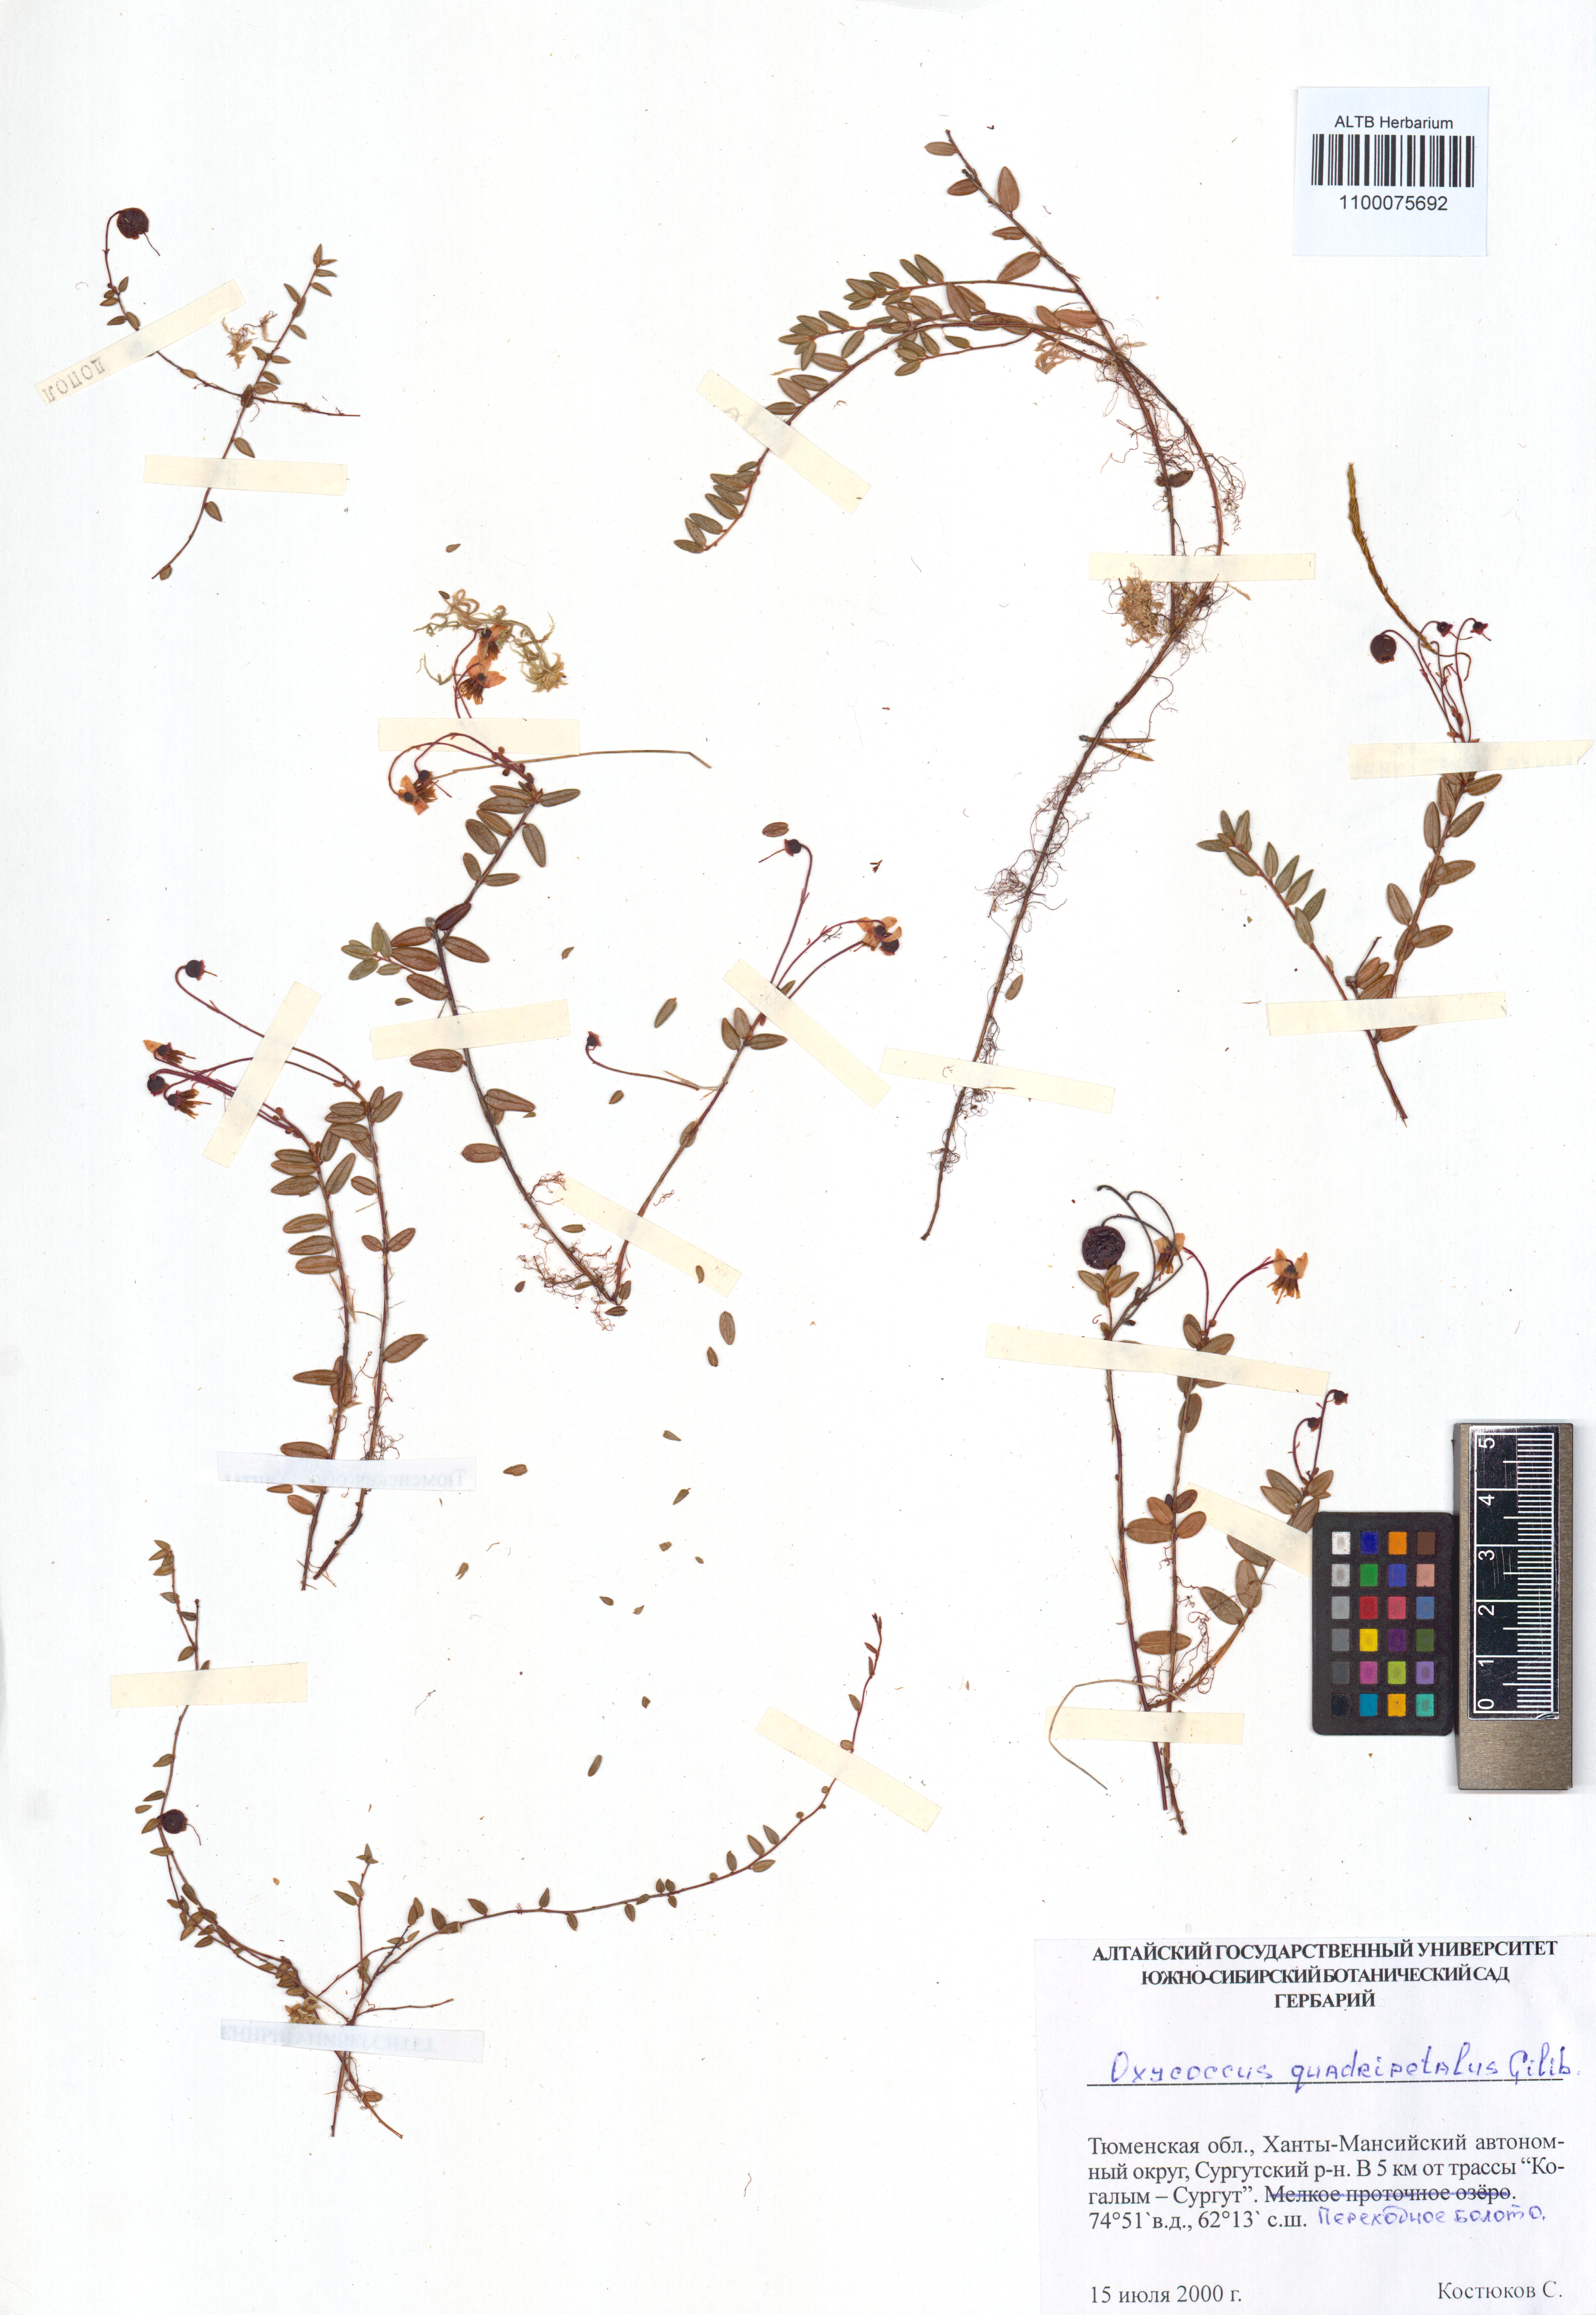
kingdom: Plantae
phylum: Tracheophyta
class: Magnoliopsida
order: Ericales
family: Ericaceae
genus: Vaccinium
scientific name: Vaccinium oxycoccos
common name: Cranberry
